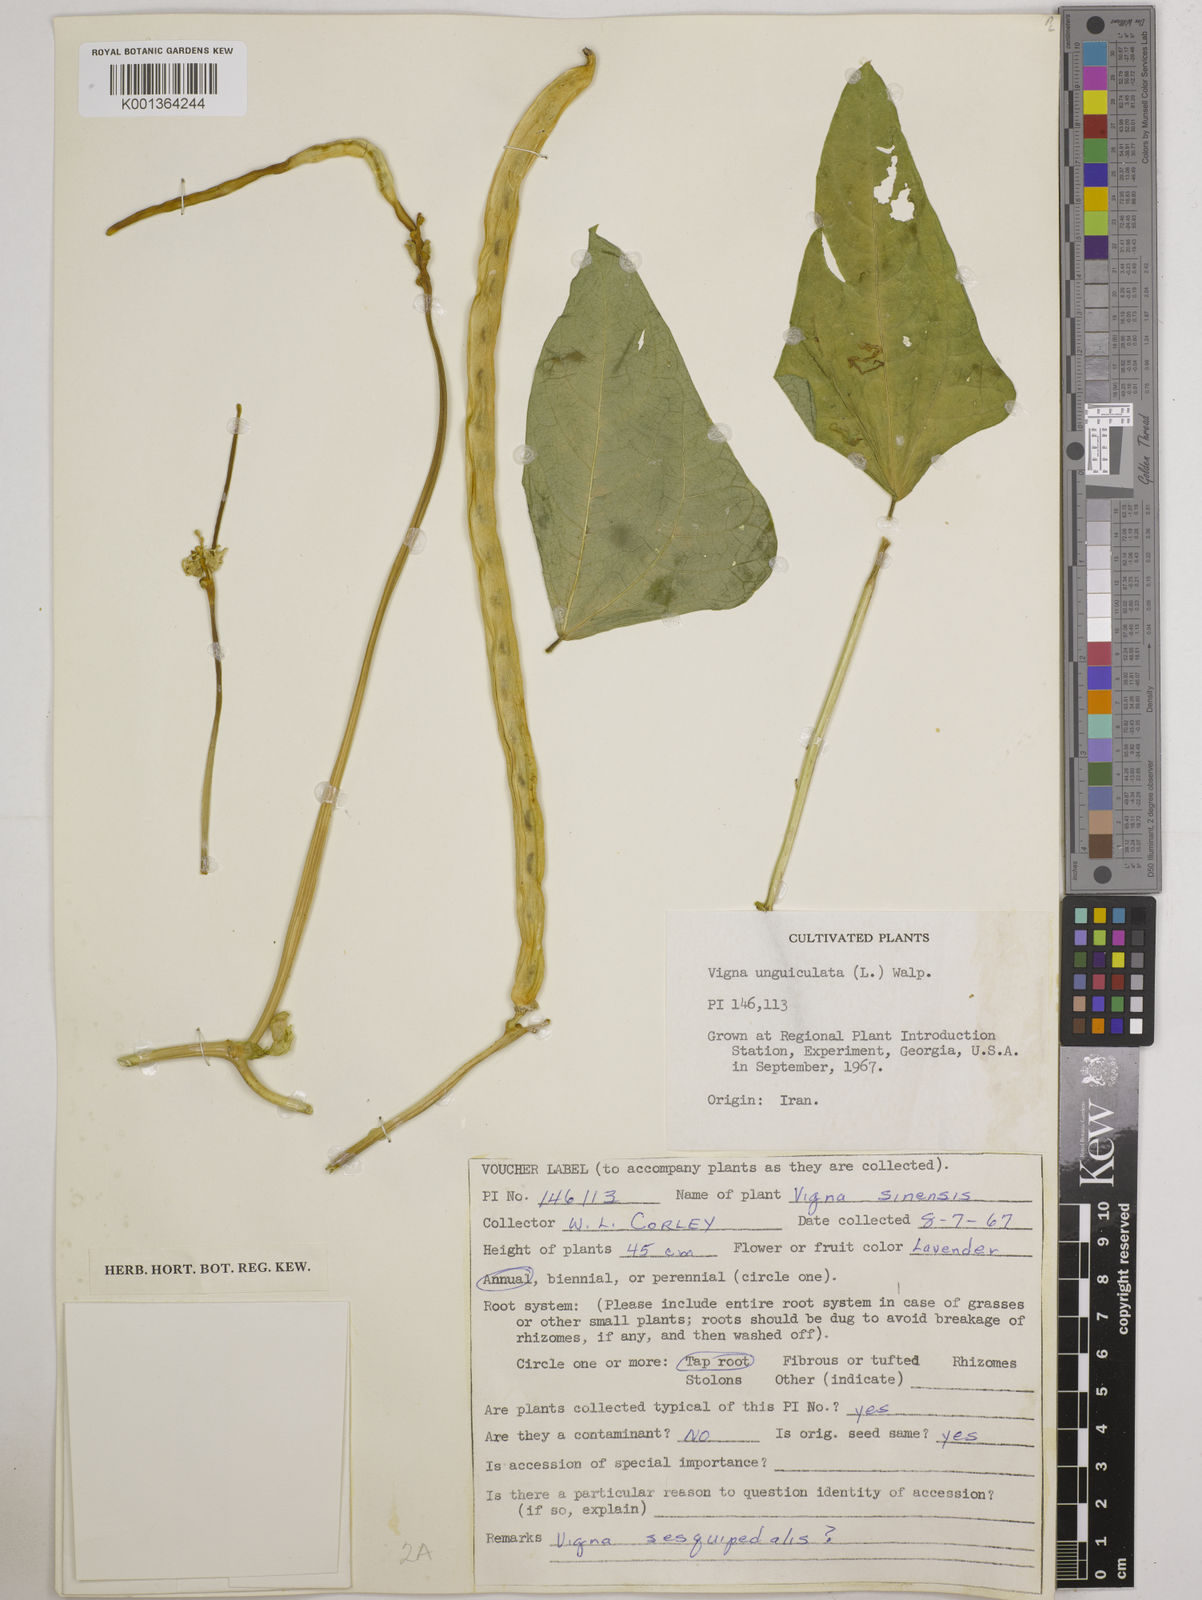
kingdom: Plantae
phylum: Tracheophyta
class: Magnoliopsida
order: Fabales
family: Fabaceae
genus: Vigna
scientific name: Vigna unguiculata
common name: Cowpea
